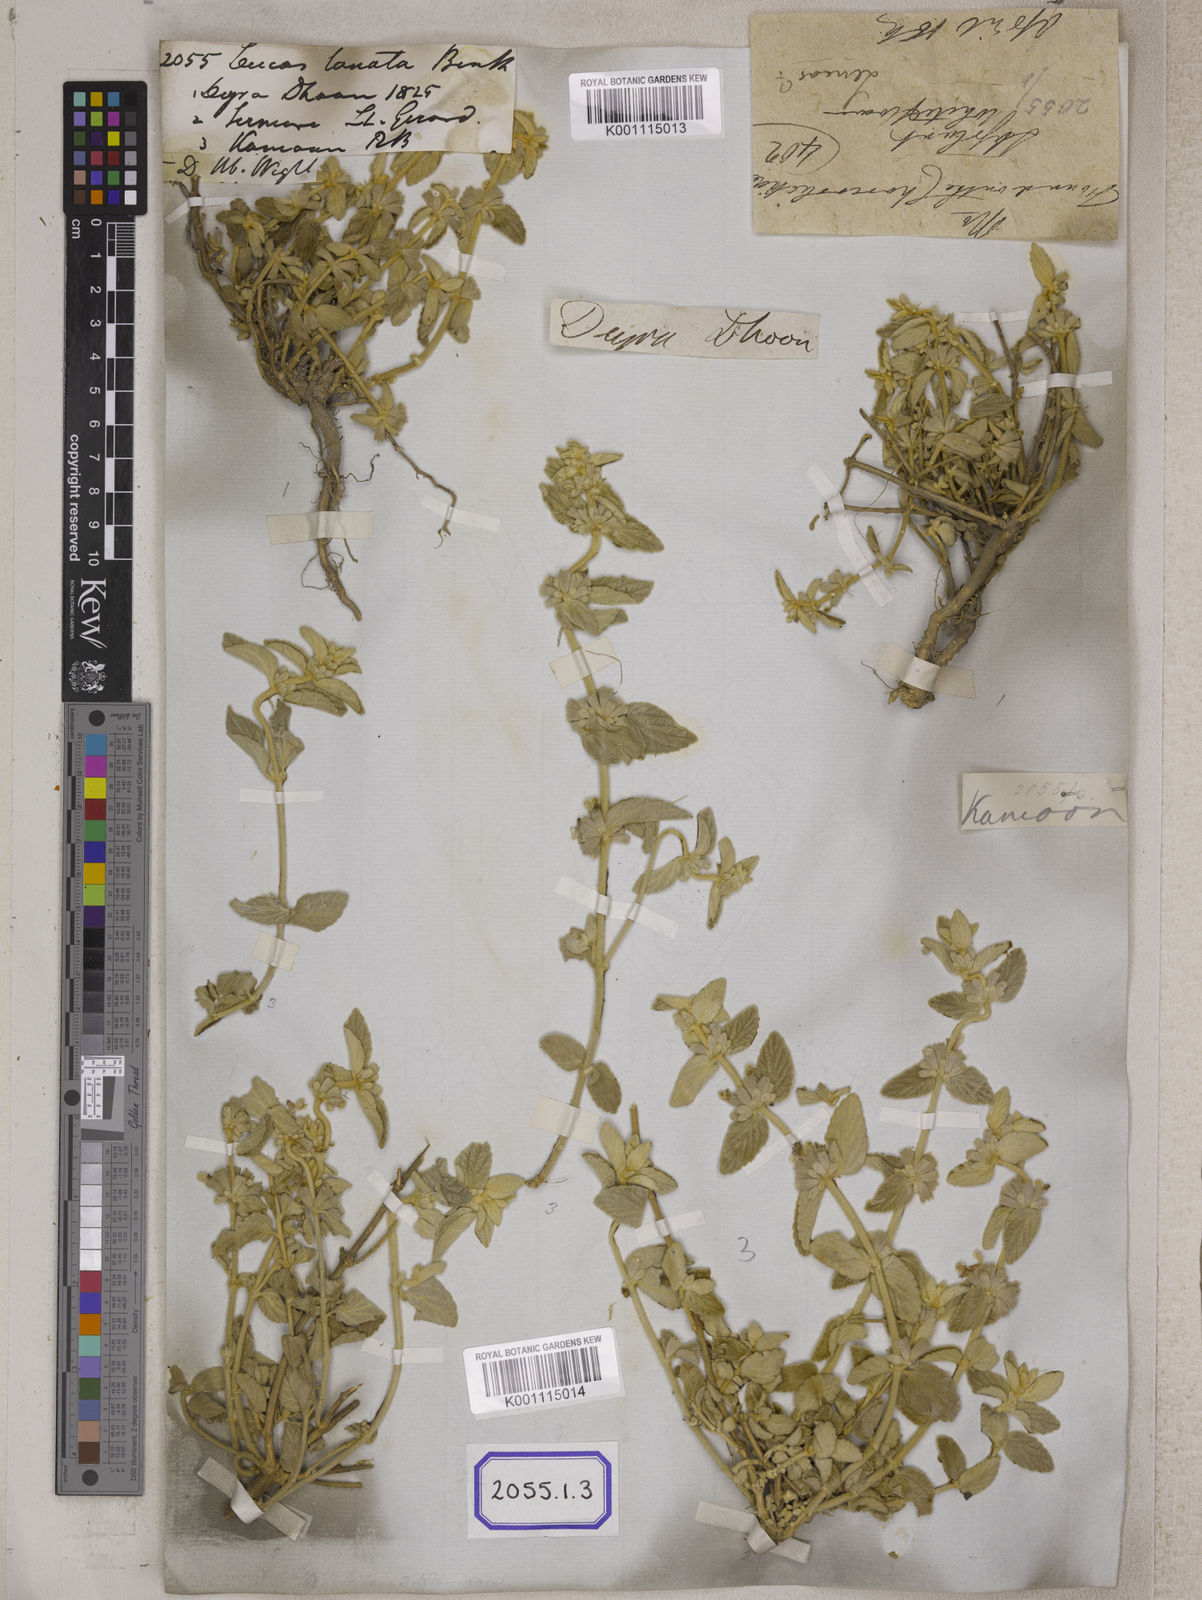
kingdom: Plantae
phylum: Tracheophyta
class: Magnoliopsida
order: Lamiales
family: Lamiaceae
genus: Leucas
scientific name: Leucas lanata
